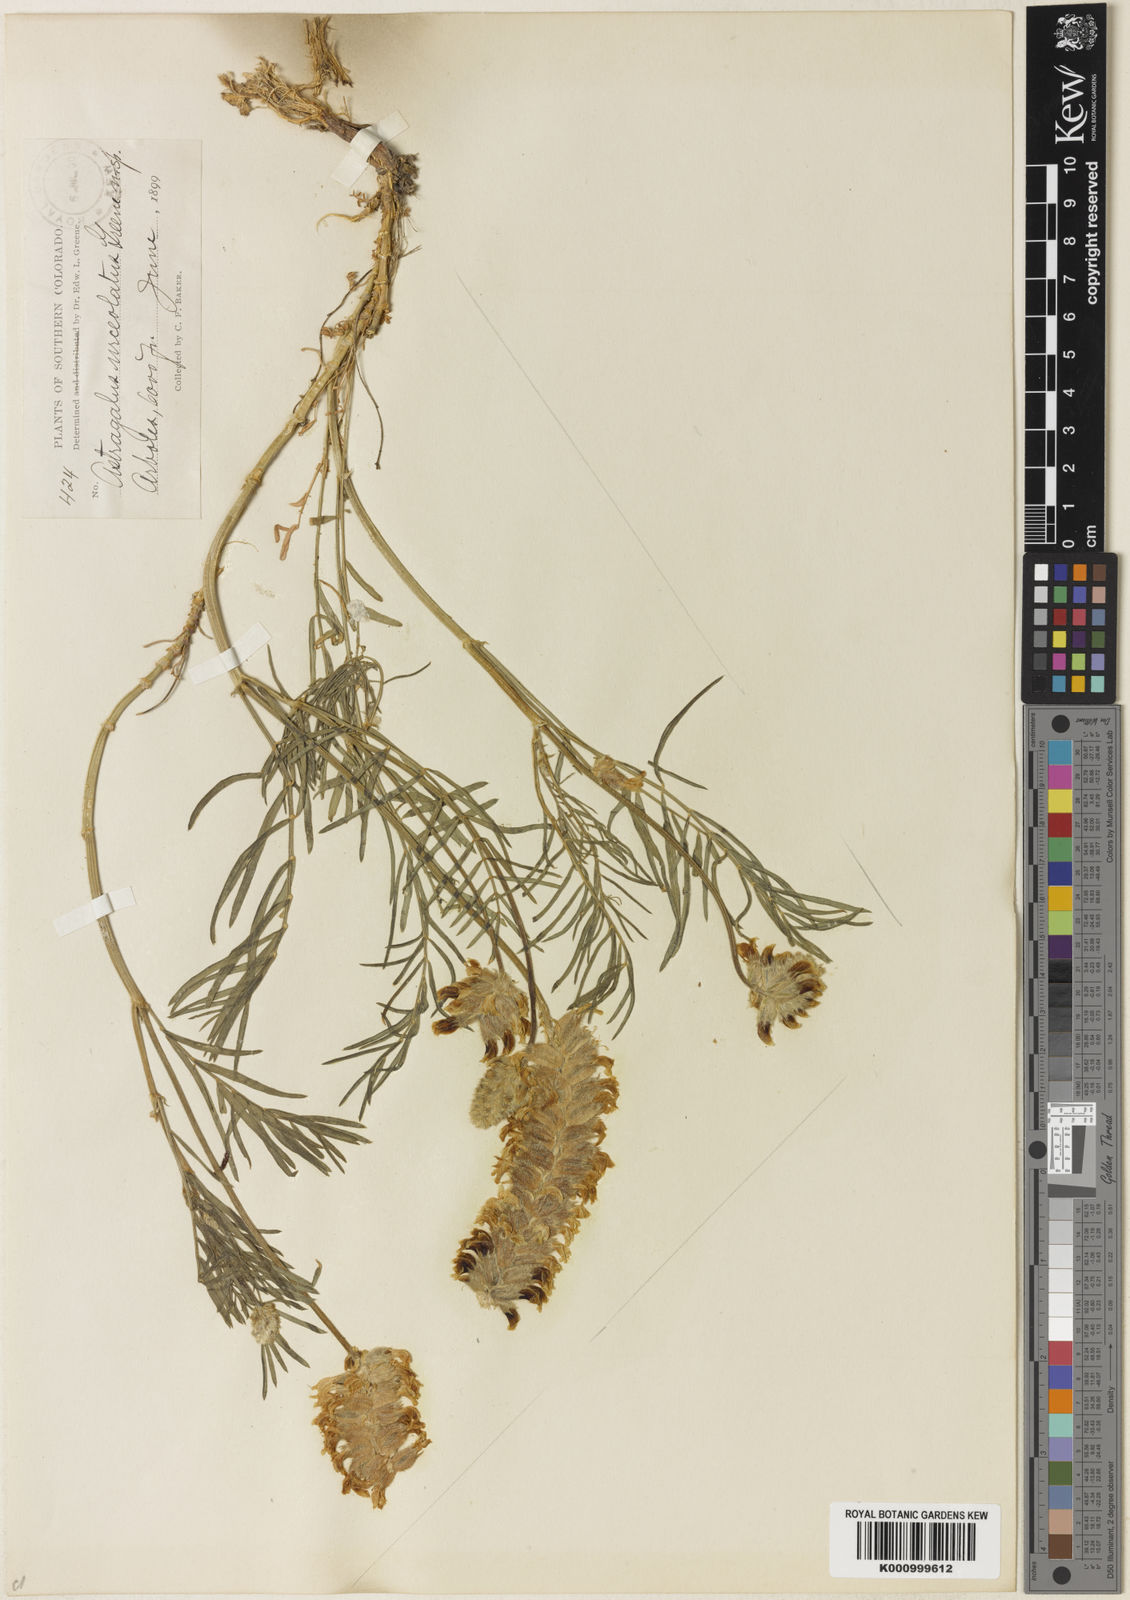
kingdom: Plantae
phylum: Tracheophyta
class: Magnoliopsida
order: Fabales
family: Fabaceae
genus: Astragalus
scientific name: Astragalus
